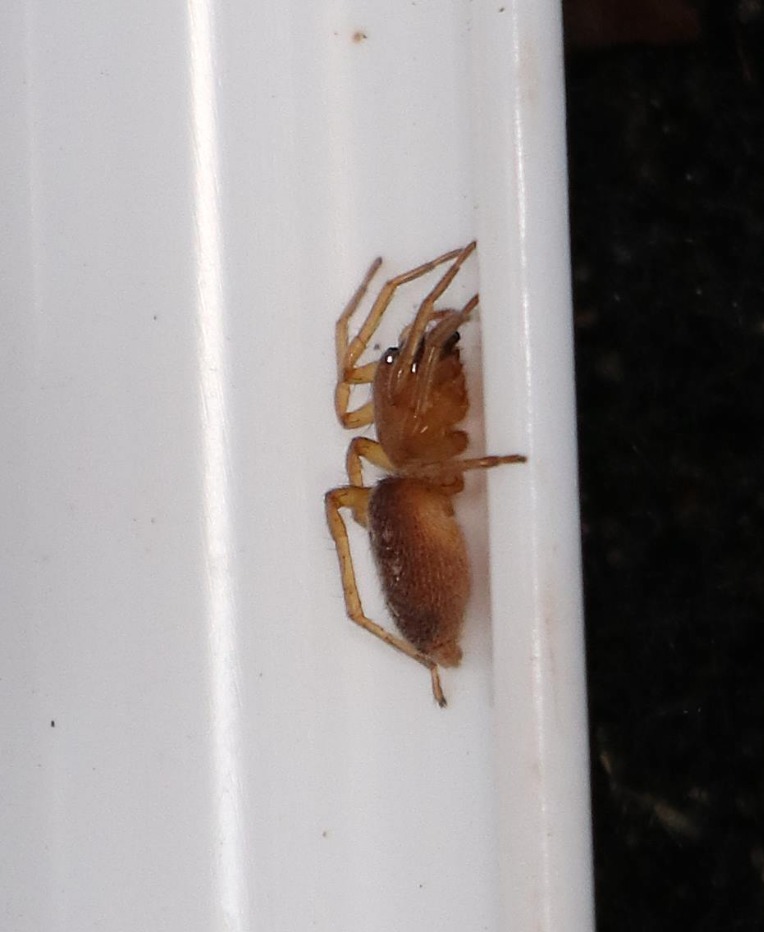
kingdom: Animalia
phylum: Arthropoda
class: Arachnida
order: Araneae
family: Clubionidae
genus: Clubiona
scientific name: Clubiona
